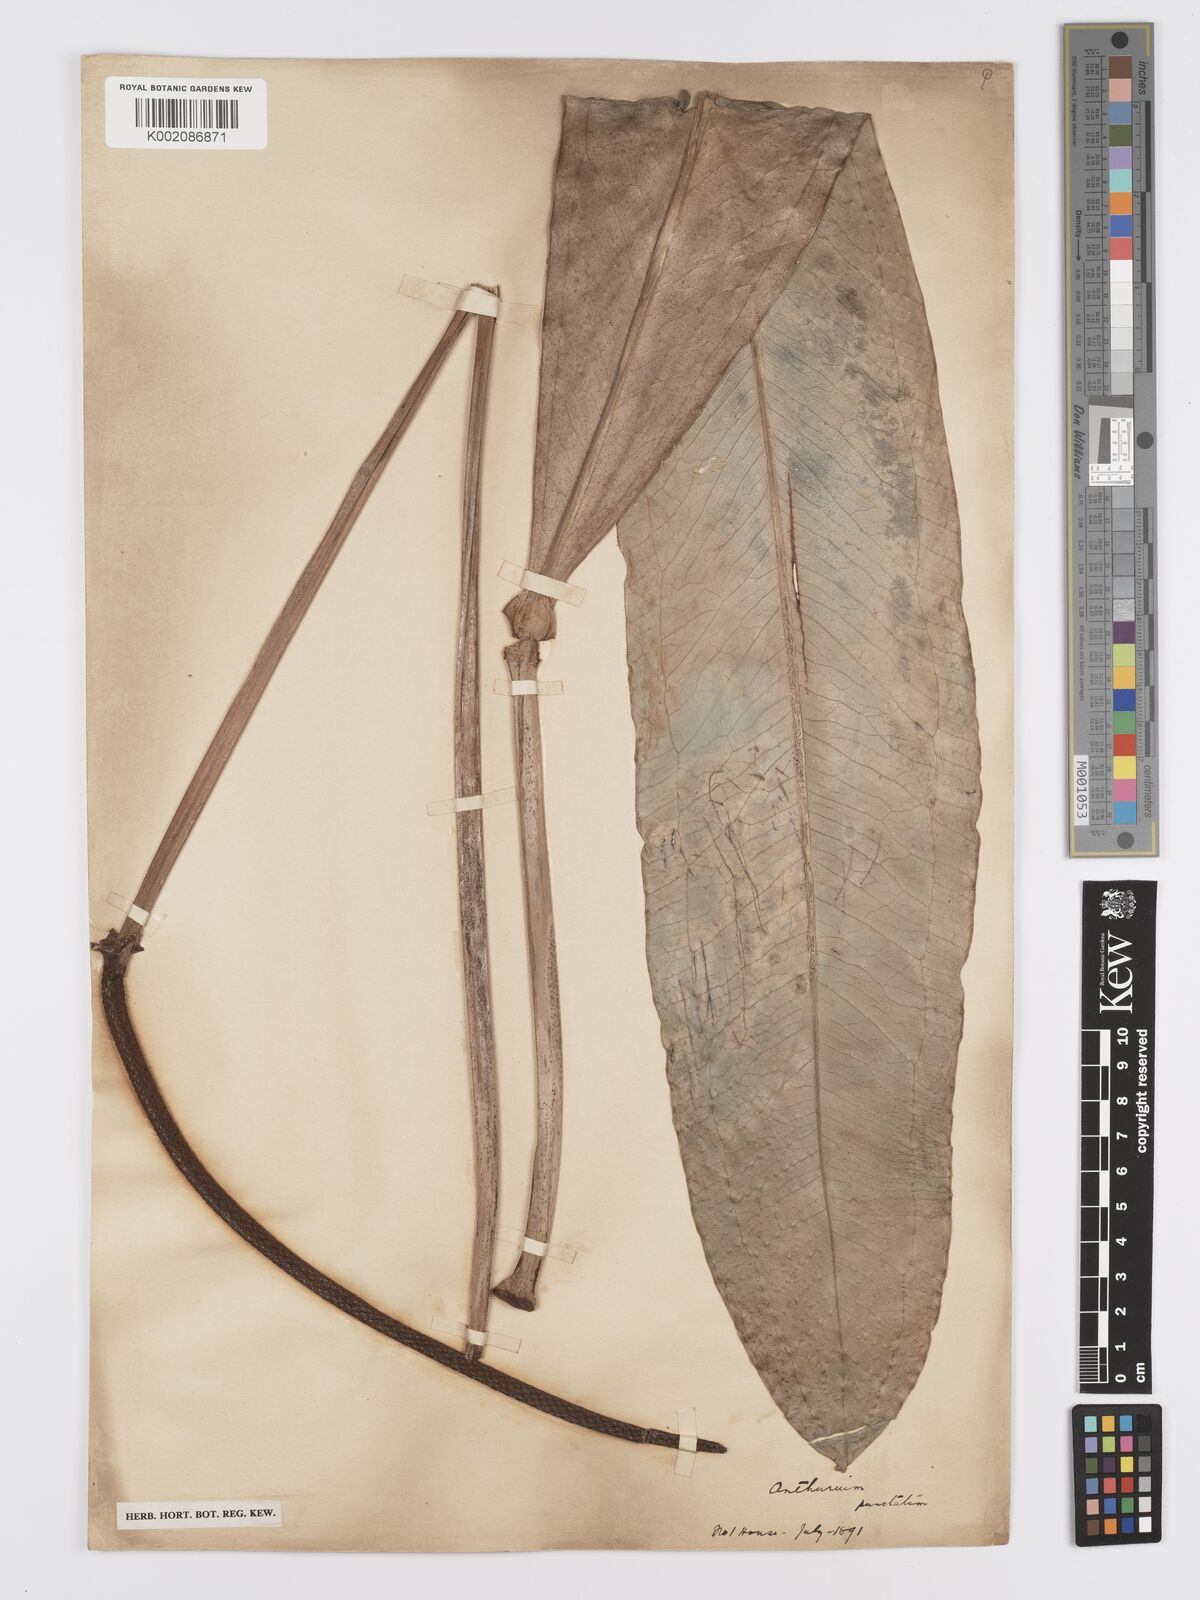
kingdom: Plantae
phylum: Tracheophyta
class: Liliopsida
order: Alismatales
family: Araceae
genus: Anthurium
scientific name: Anthurium punctatum
